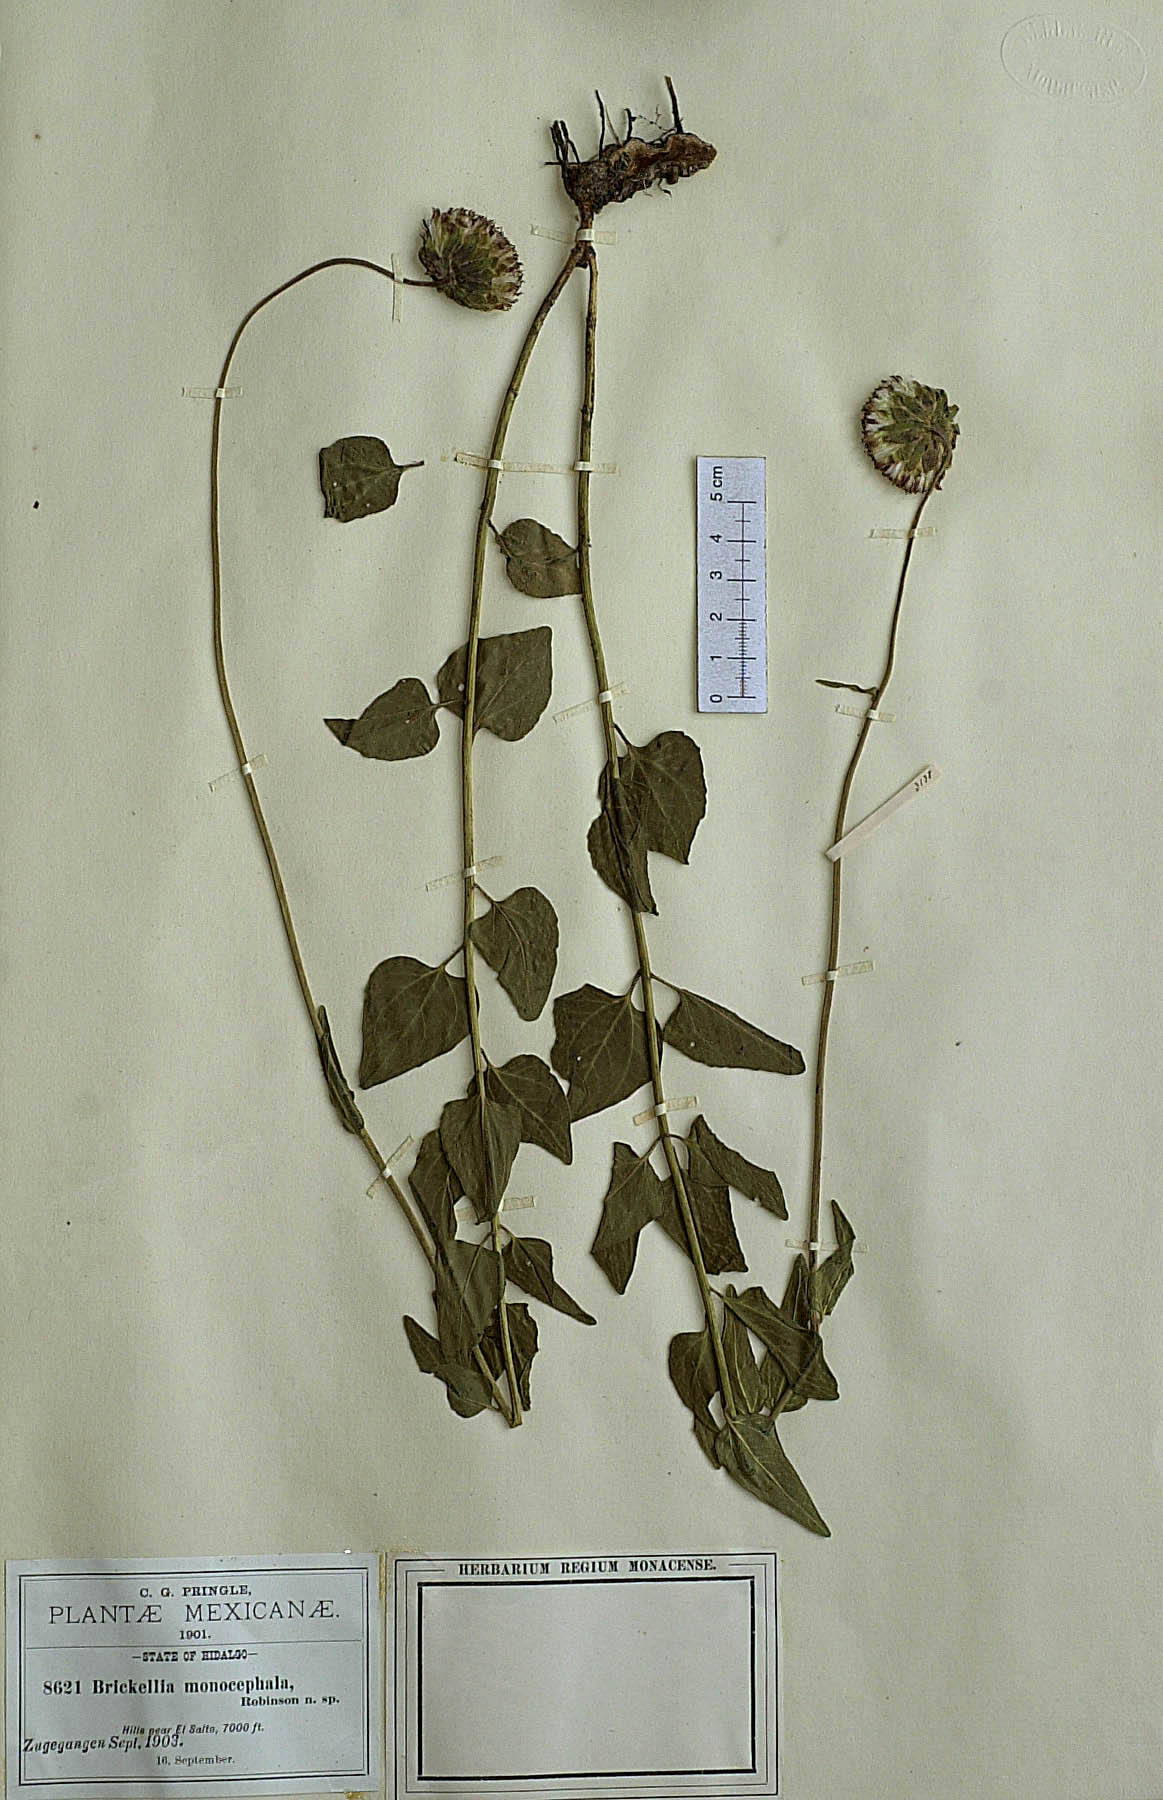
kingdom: Plantae
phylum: Tracheophyta
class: Magnoliopsida
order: Asterales
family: Asteraceae
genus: Brickellia
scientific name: Brickellia monocephala
